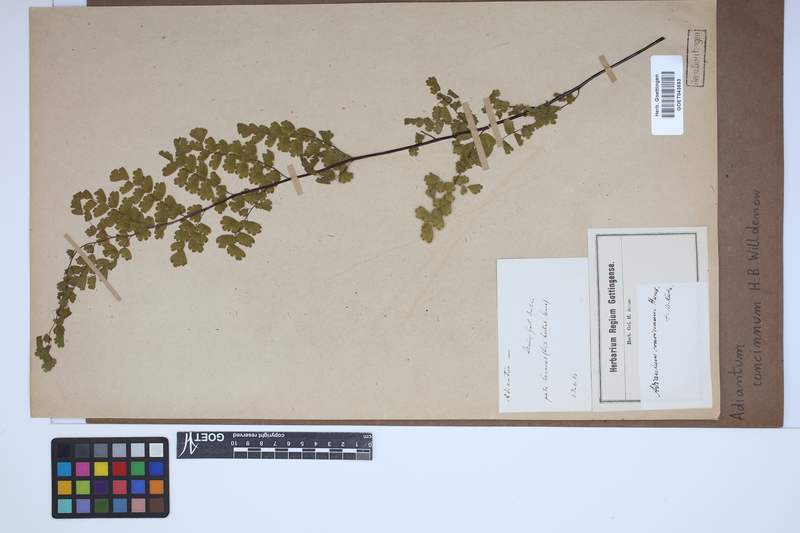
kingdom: Plantae
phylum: Tracheophyta
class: Polypodiopsida
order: Polypodiales
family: Pteridaceae
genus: Adiantum
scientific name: Adiantum concinnum
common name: Brittle maidenhair fern
